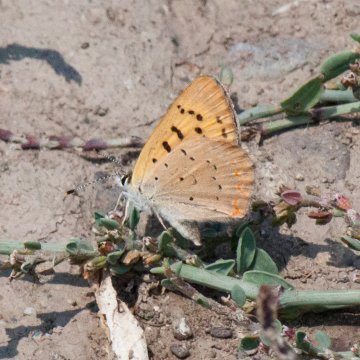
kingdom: Animalia
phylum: Arthropoda
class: Insecta
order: Lepidoptera
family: Sesiidae
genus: Sesia
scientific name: Sesia Lycaena helloides
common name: Purplish Copper
